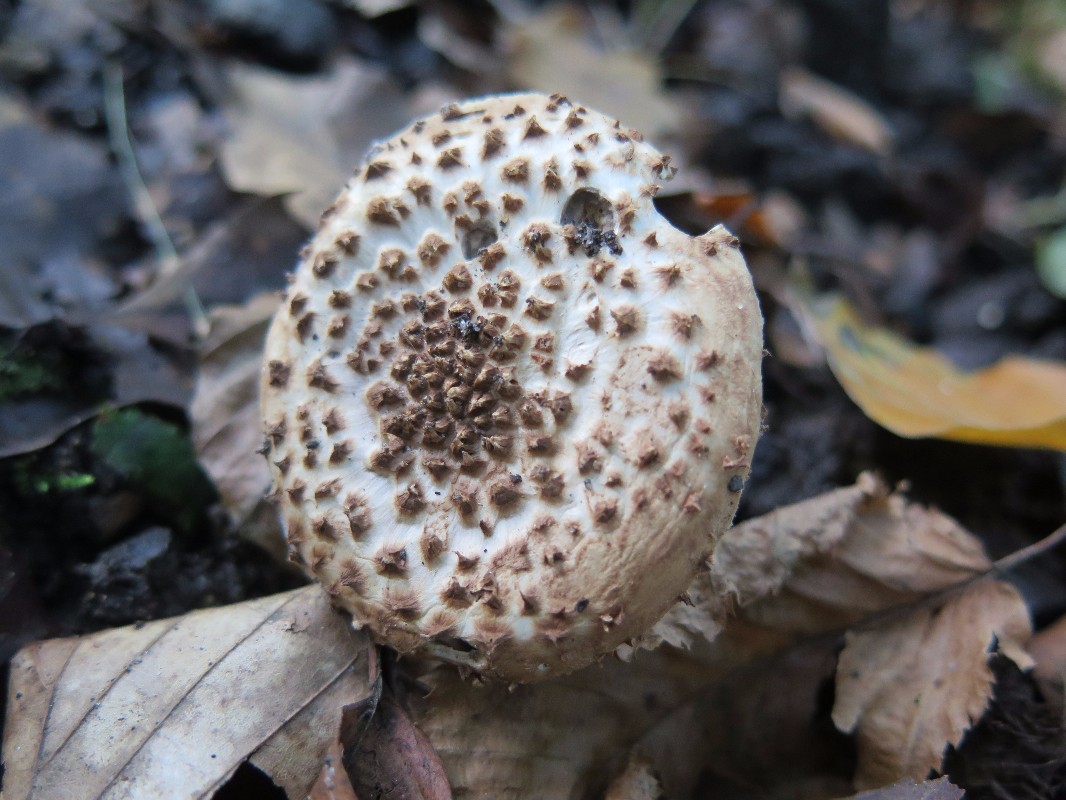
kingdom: Fungi
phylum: Basidiomycota
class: Agaricomycetes
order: Agaricales
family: Agaricaceae
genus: Echinoderma
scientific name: Echinoderma asperum
